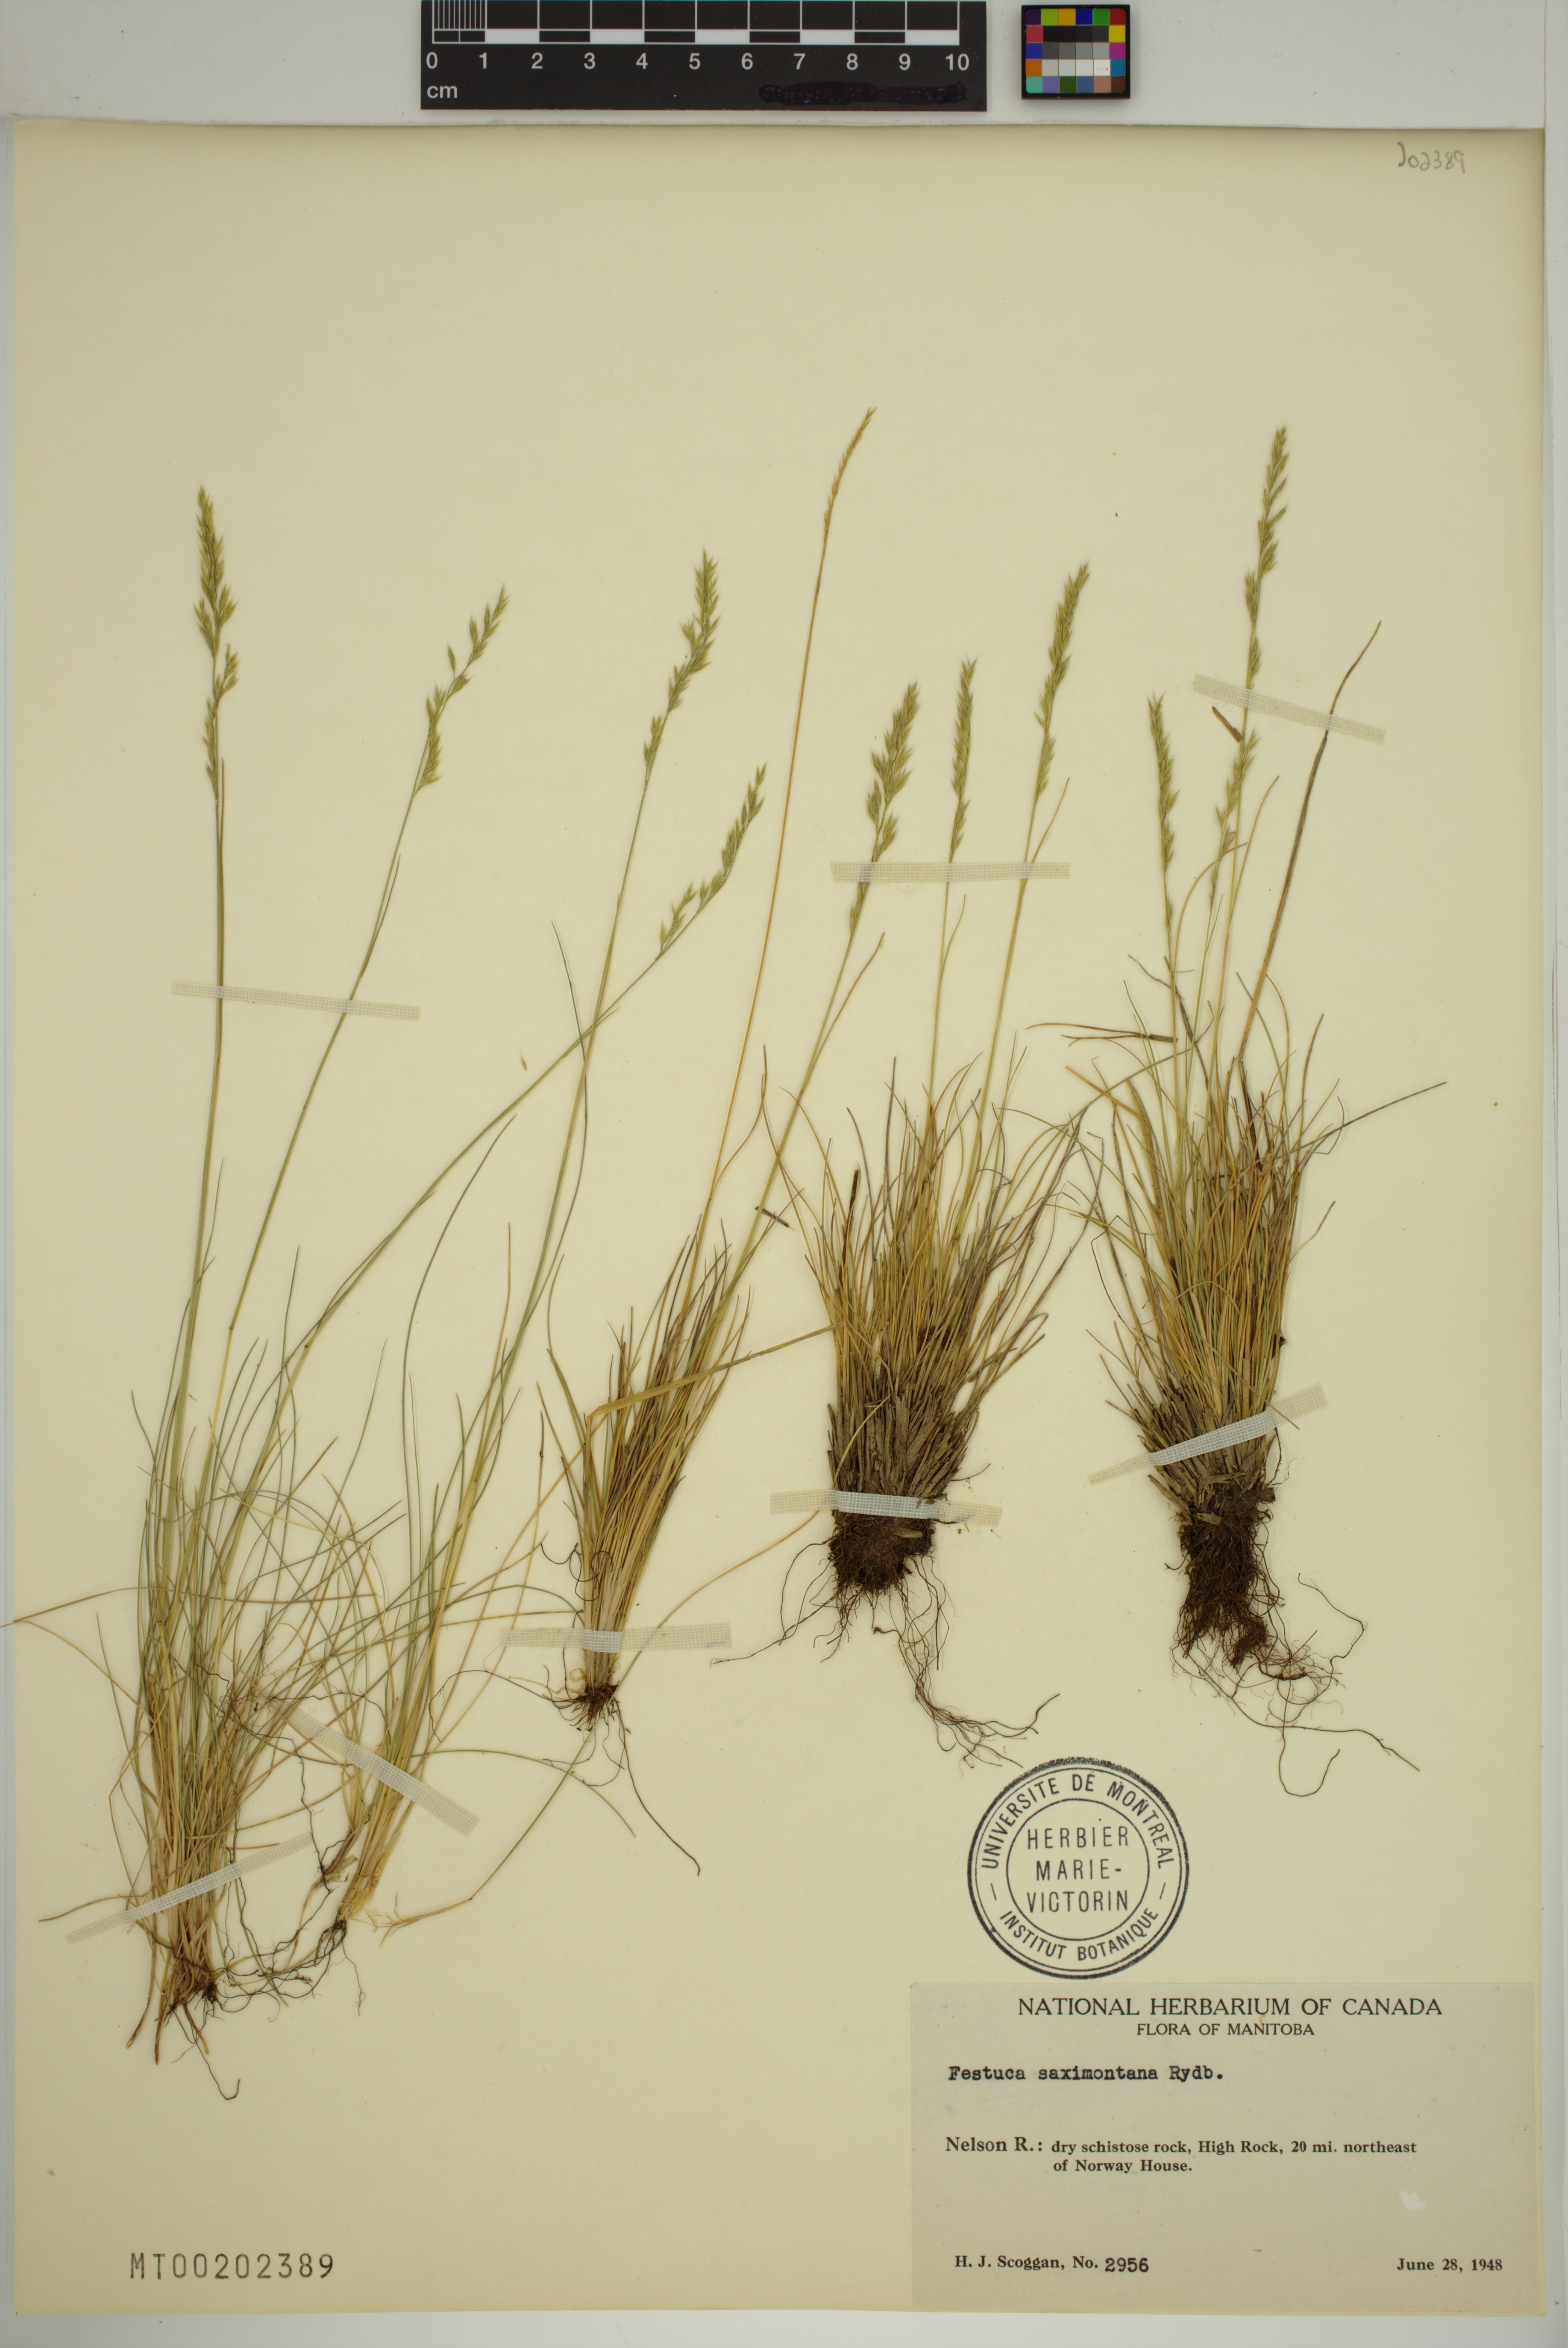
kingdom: Plantae
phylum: Tracheophyta
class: Liliopsida
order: Poales
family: Poaceae
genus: Festuca
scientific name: Festuca saximontana
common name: Mountain fescue
